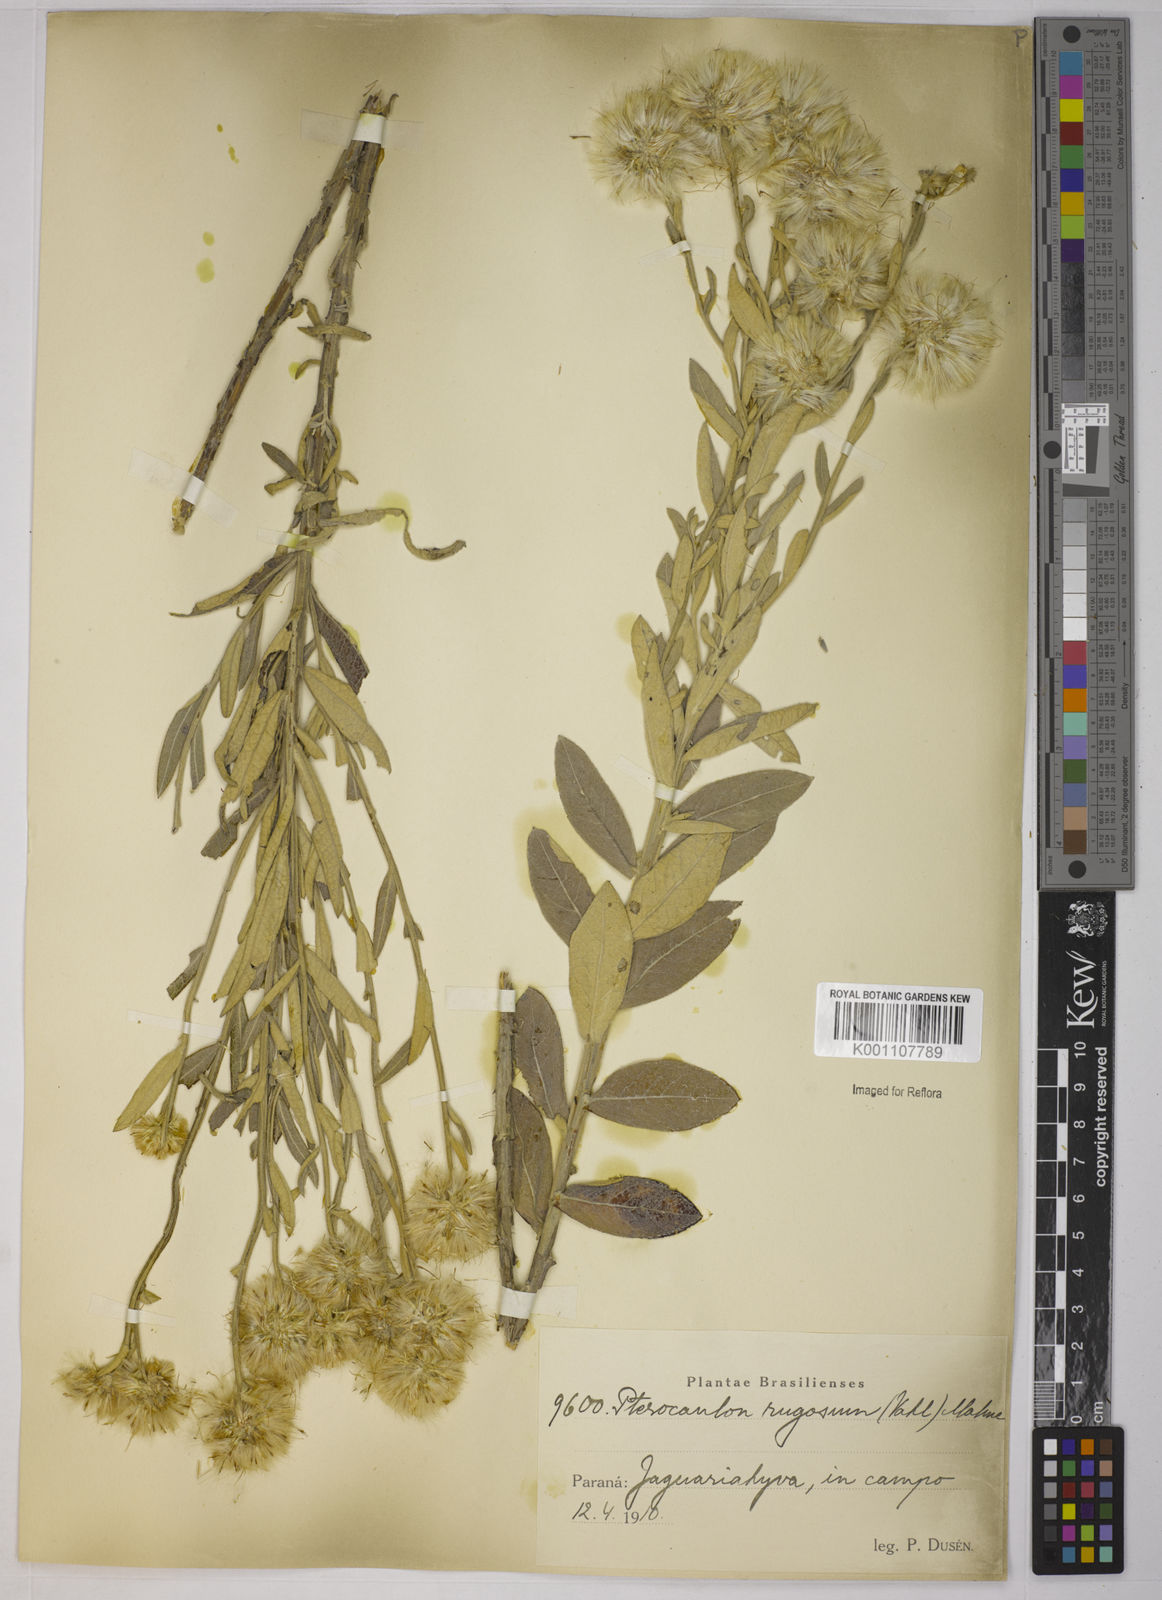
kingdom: Plantae
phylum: Tracheophyta
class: Magnoliopsida
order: Asterales
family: Asteraceae
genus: Pterocaulon
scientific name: Pterocaulon angustifolium
